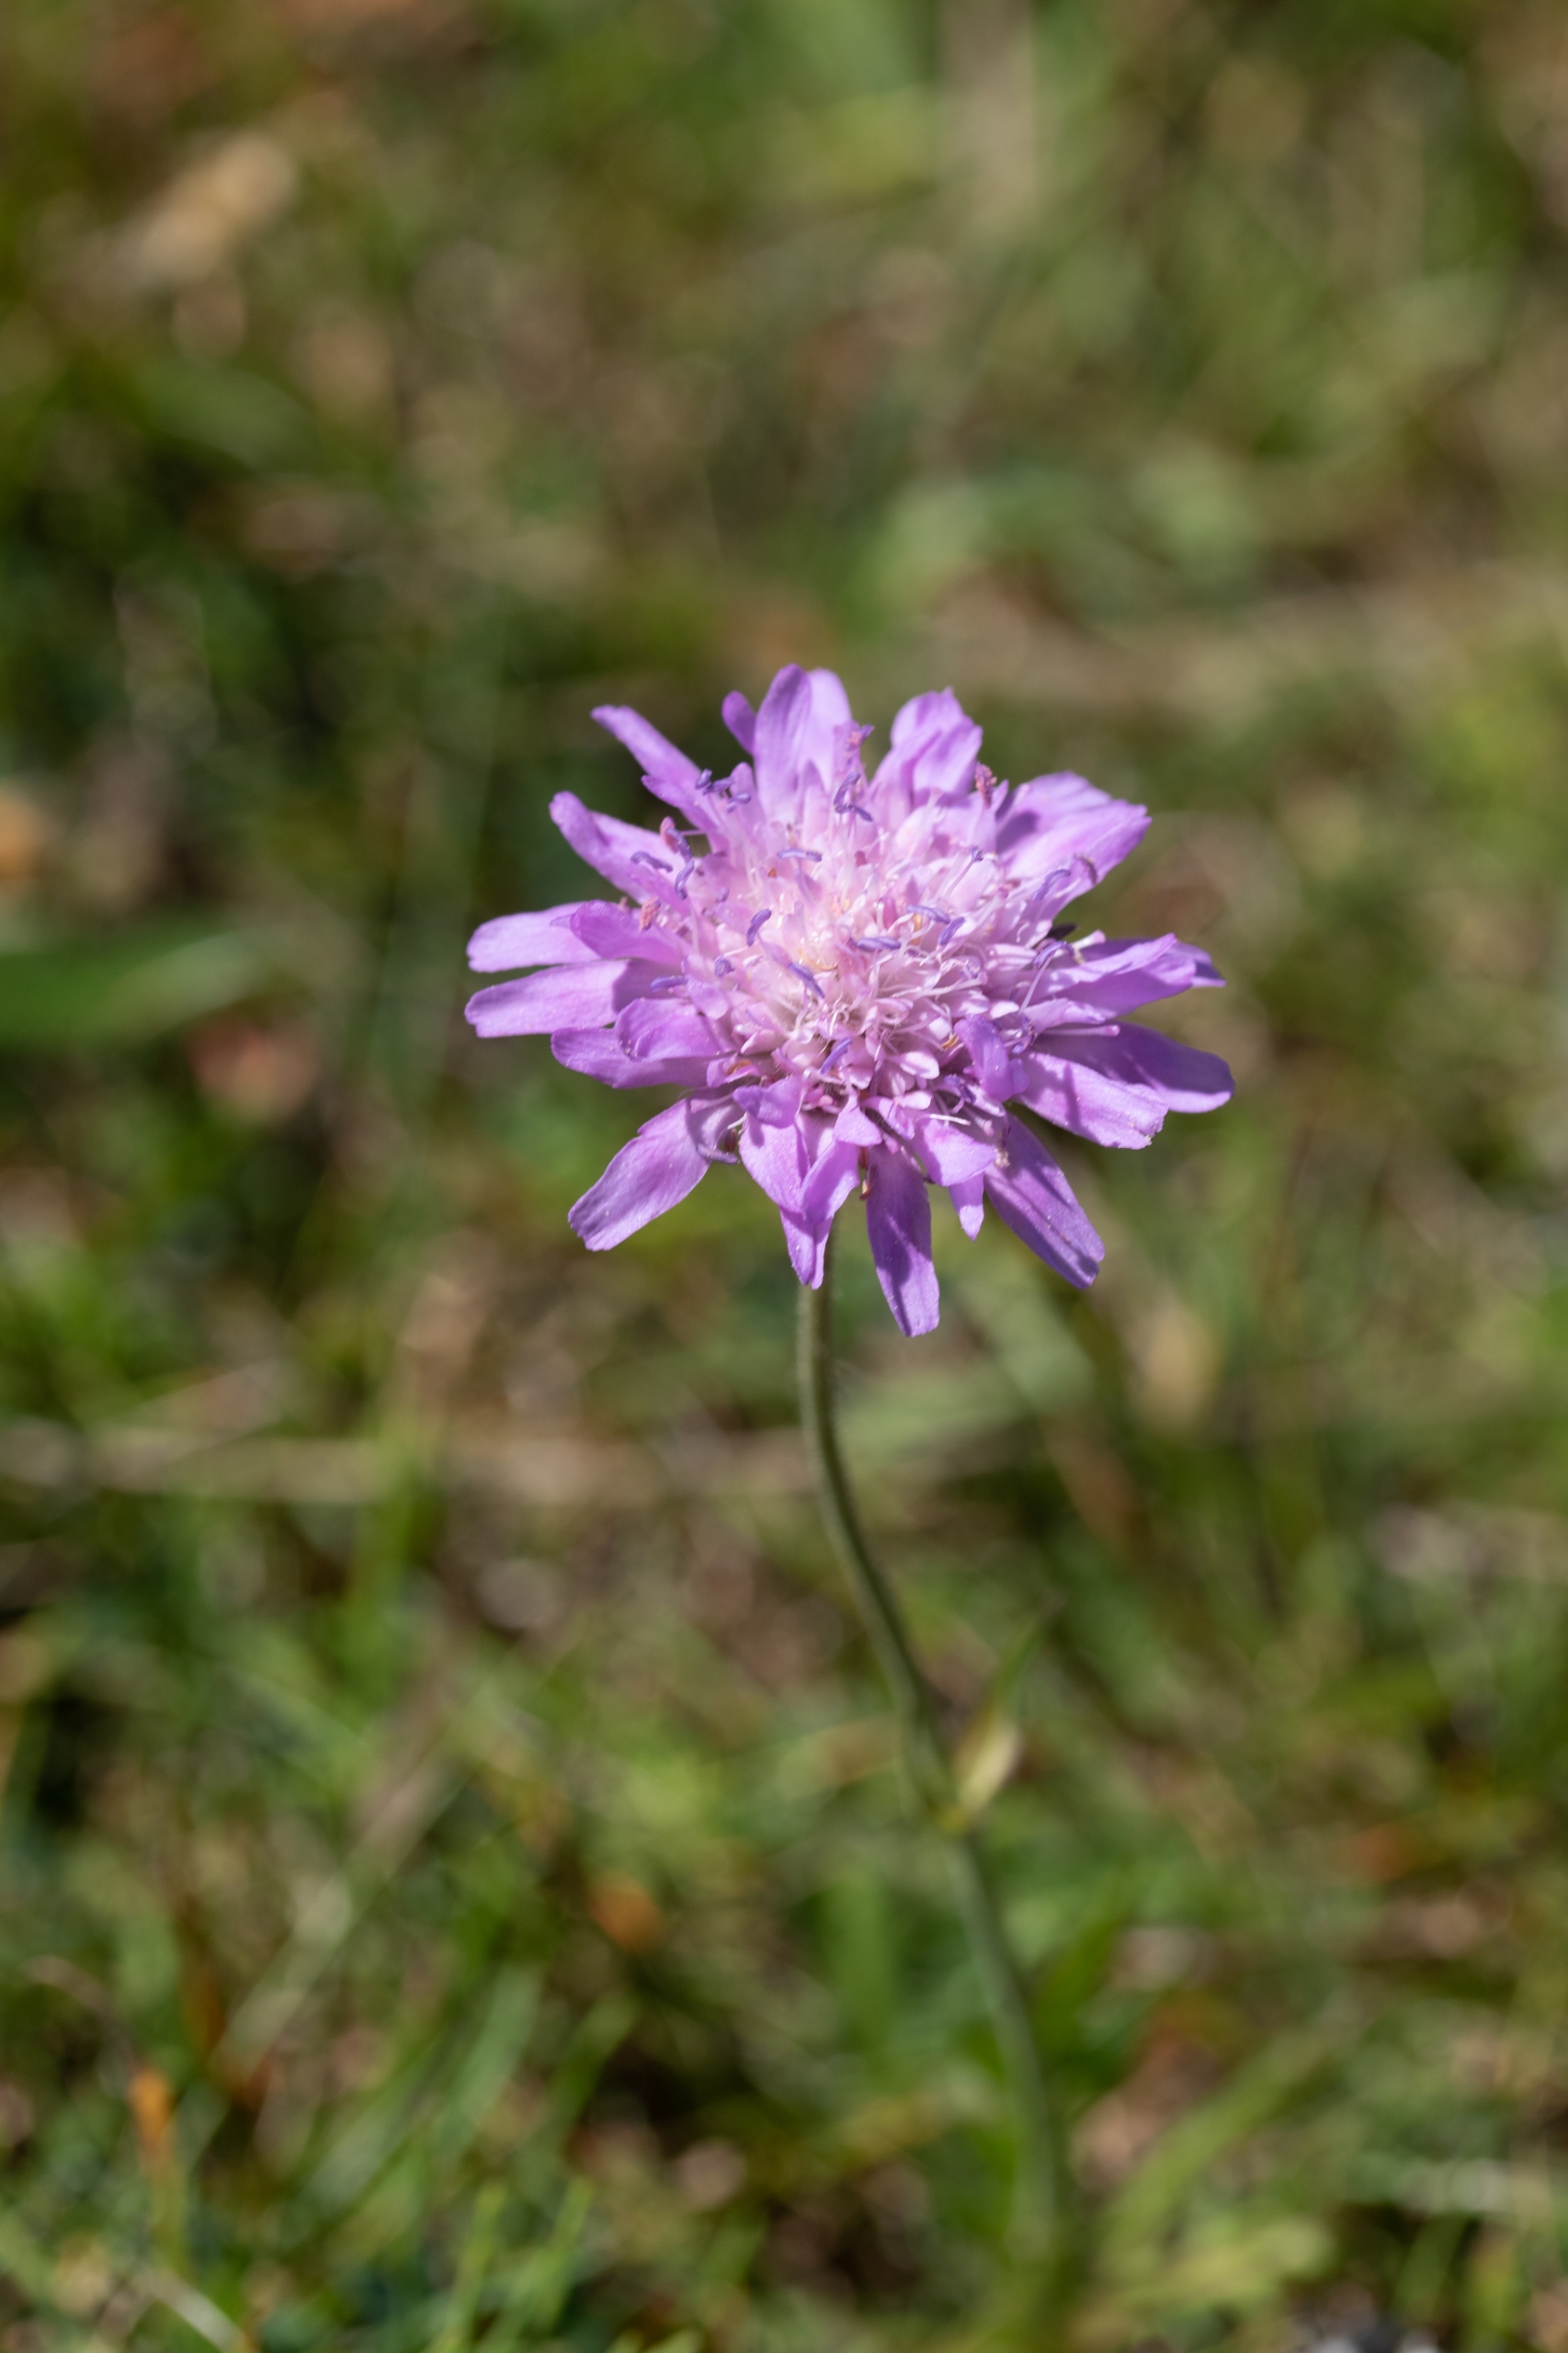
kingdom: Plantae
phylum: Tracheophyta
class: Magnoliopsida
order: Dipsacales
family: Caprifoliaceae
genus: Knautia
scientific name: Knautia arvensis
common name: Blåhat
